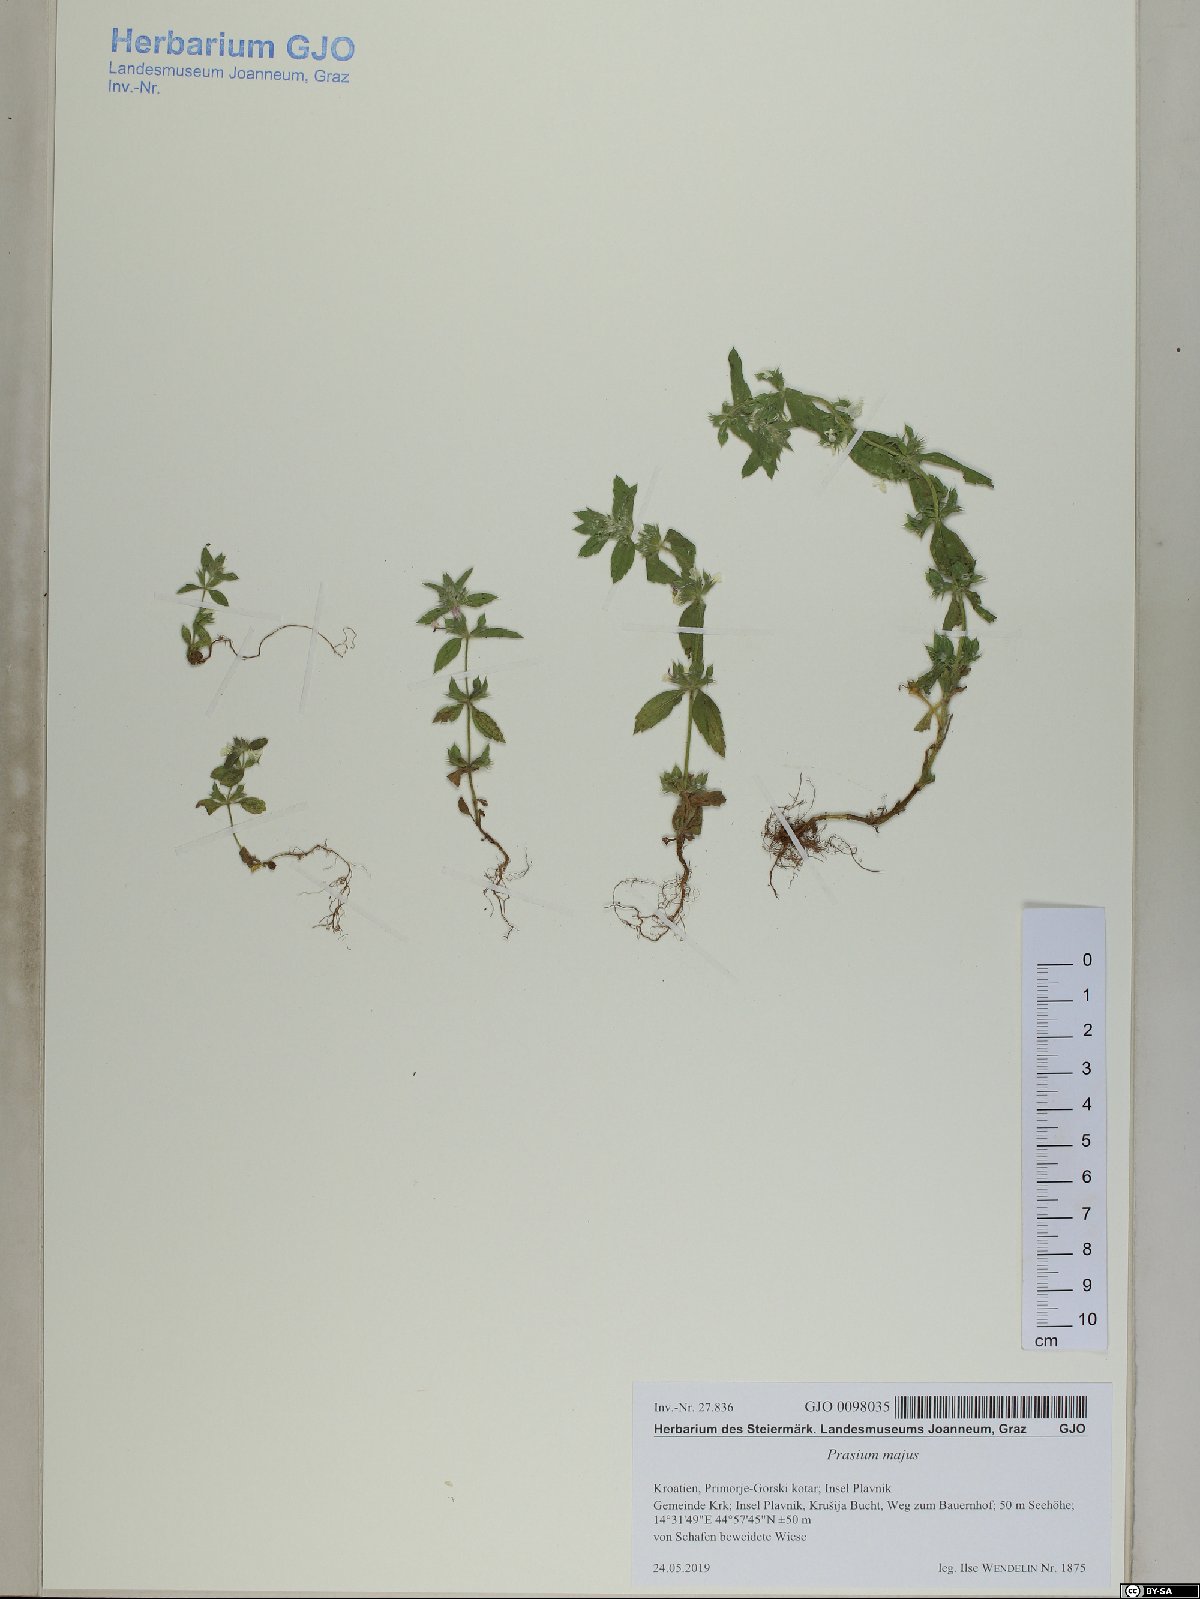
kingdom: Plantae
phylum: Tracheophyta
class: Magnoliopsida
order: Lamiales
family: Lamiaceae
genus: Sideritis
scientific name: Sideritis romana
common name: Simplebeak ironwort
